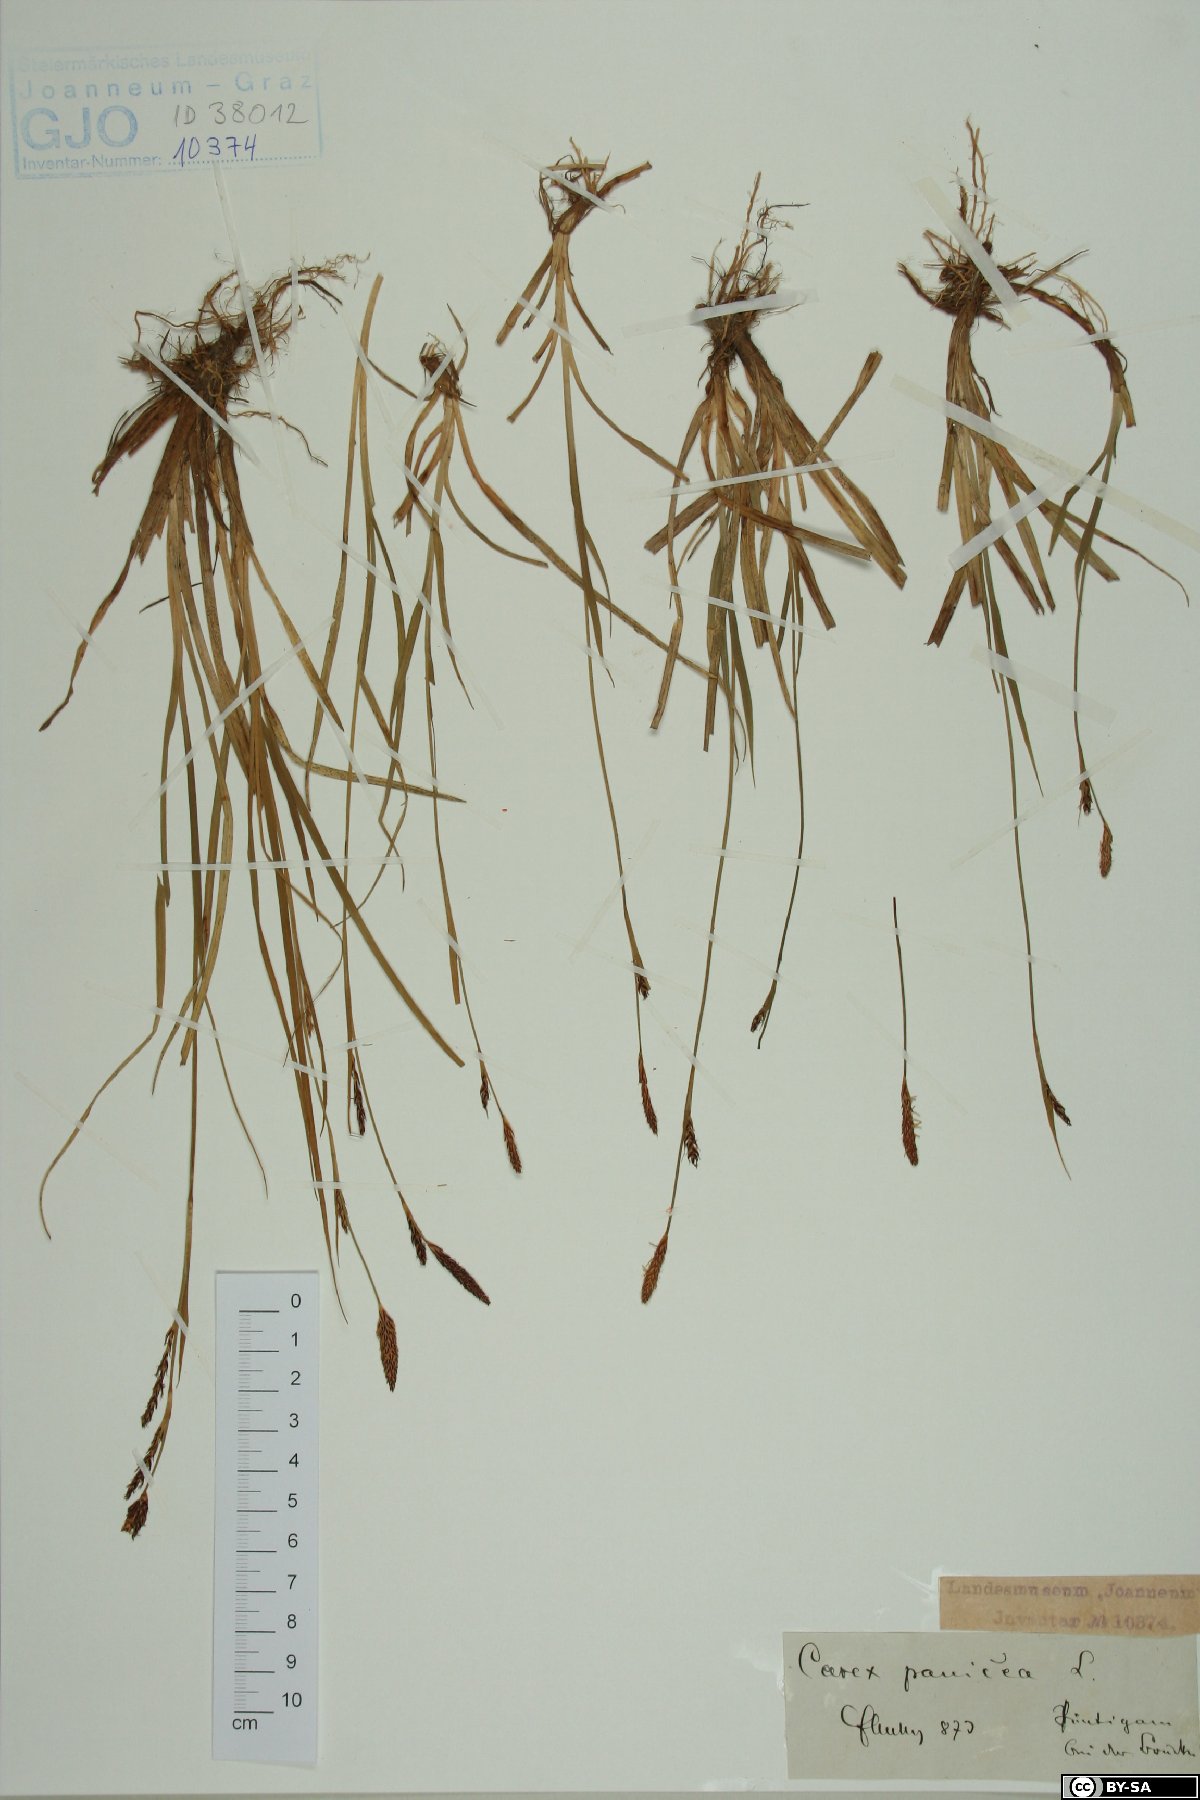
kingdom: Plantae
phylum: Tracheophyta
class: Liliopsida
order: Poales
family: Cyperaceae
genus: Carex
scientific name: Carex panicea
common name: Carnation sedge
